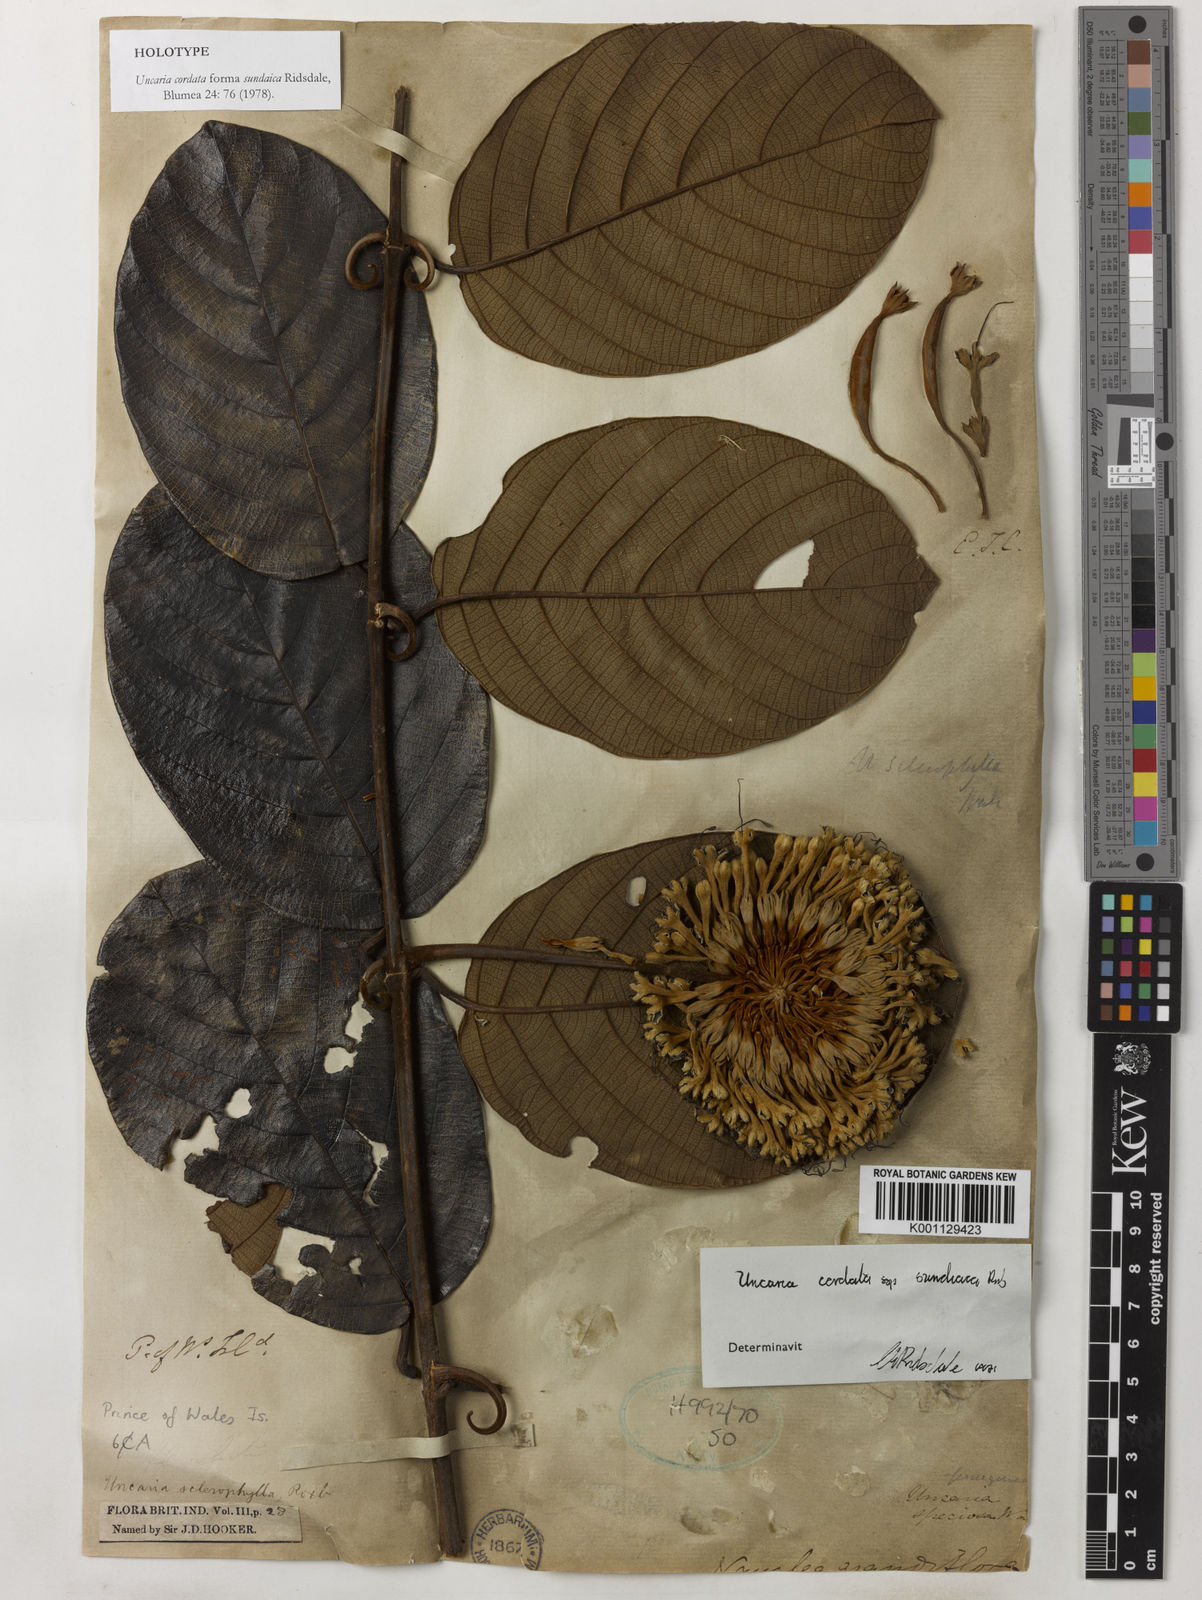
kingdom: Plantae
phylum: Tracheophyta
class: Magnoliopsida
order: Gentianales
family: Rubiaceae
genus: Uncaria
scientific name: Uncaria cordata
